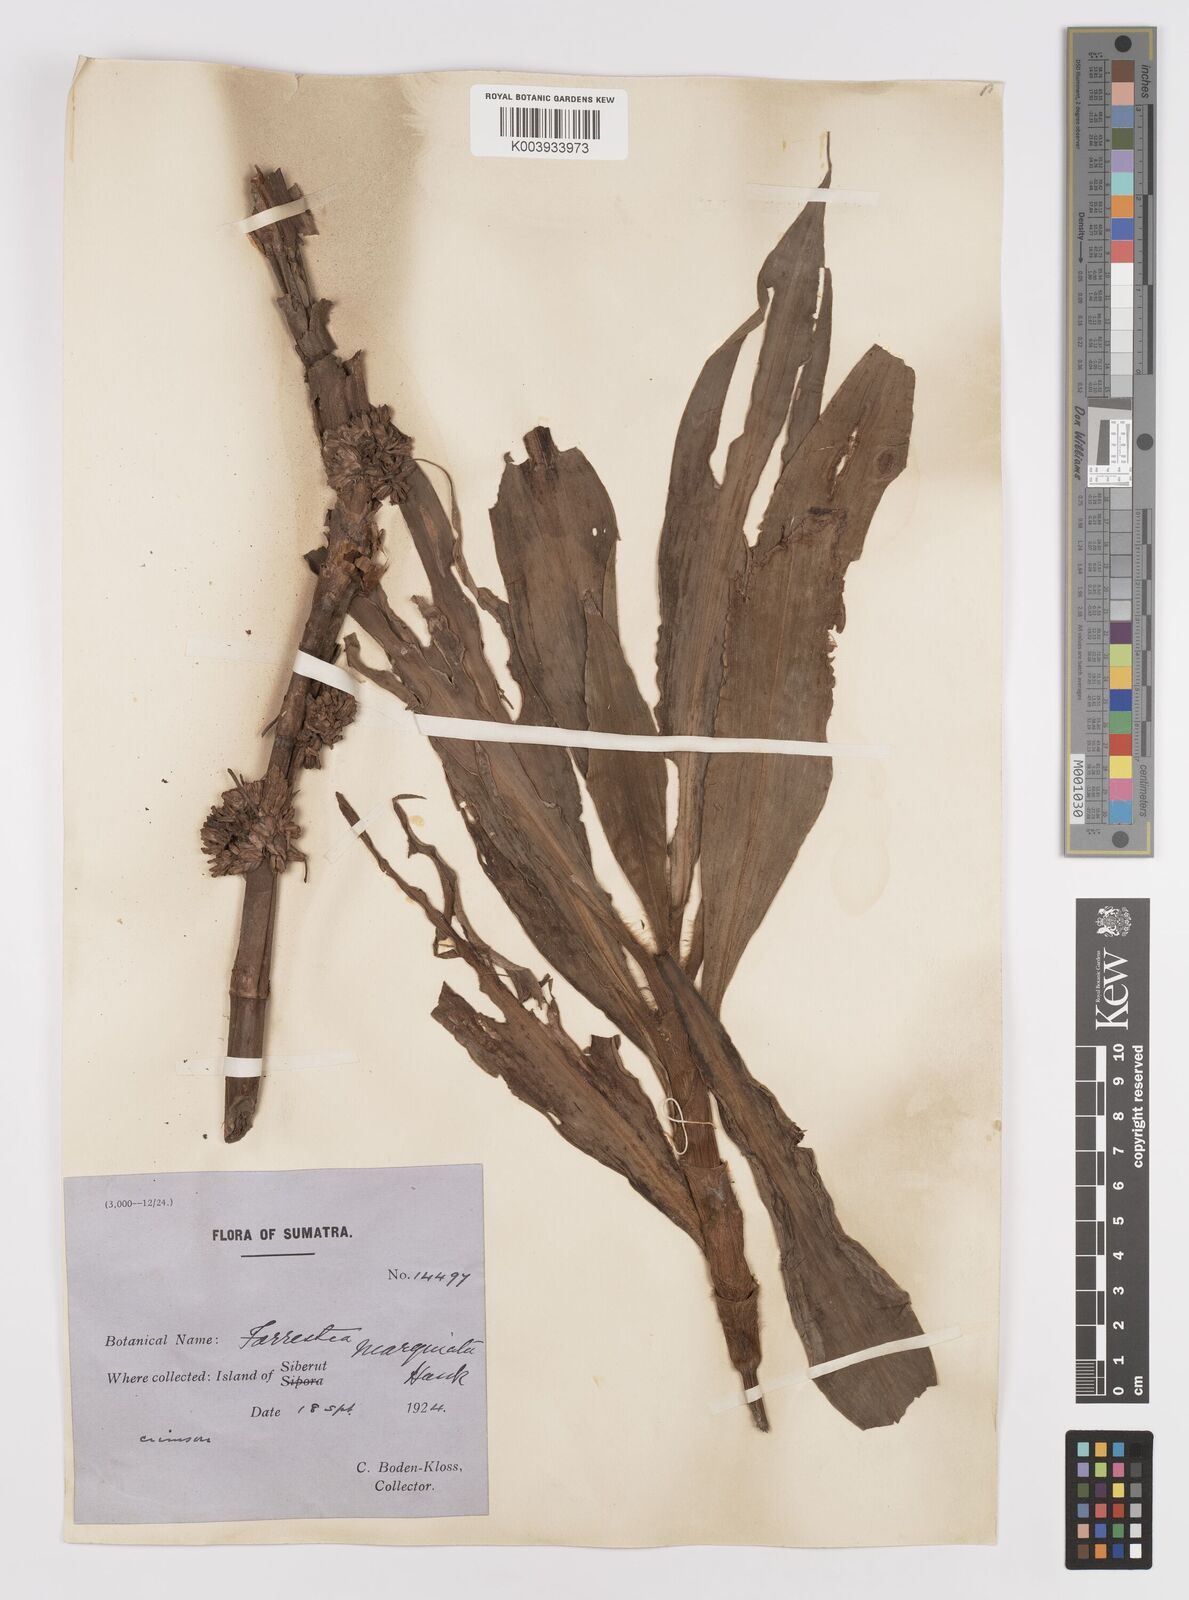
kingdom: Plantae
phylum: Tracheophyta
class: Liliopsida
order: Commelinales
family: Commelinaceae
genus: Amischotolype
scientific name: Amischotolype marginata
